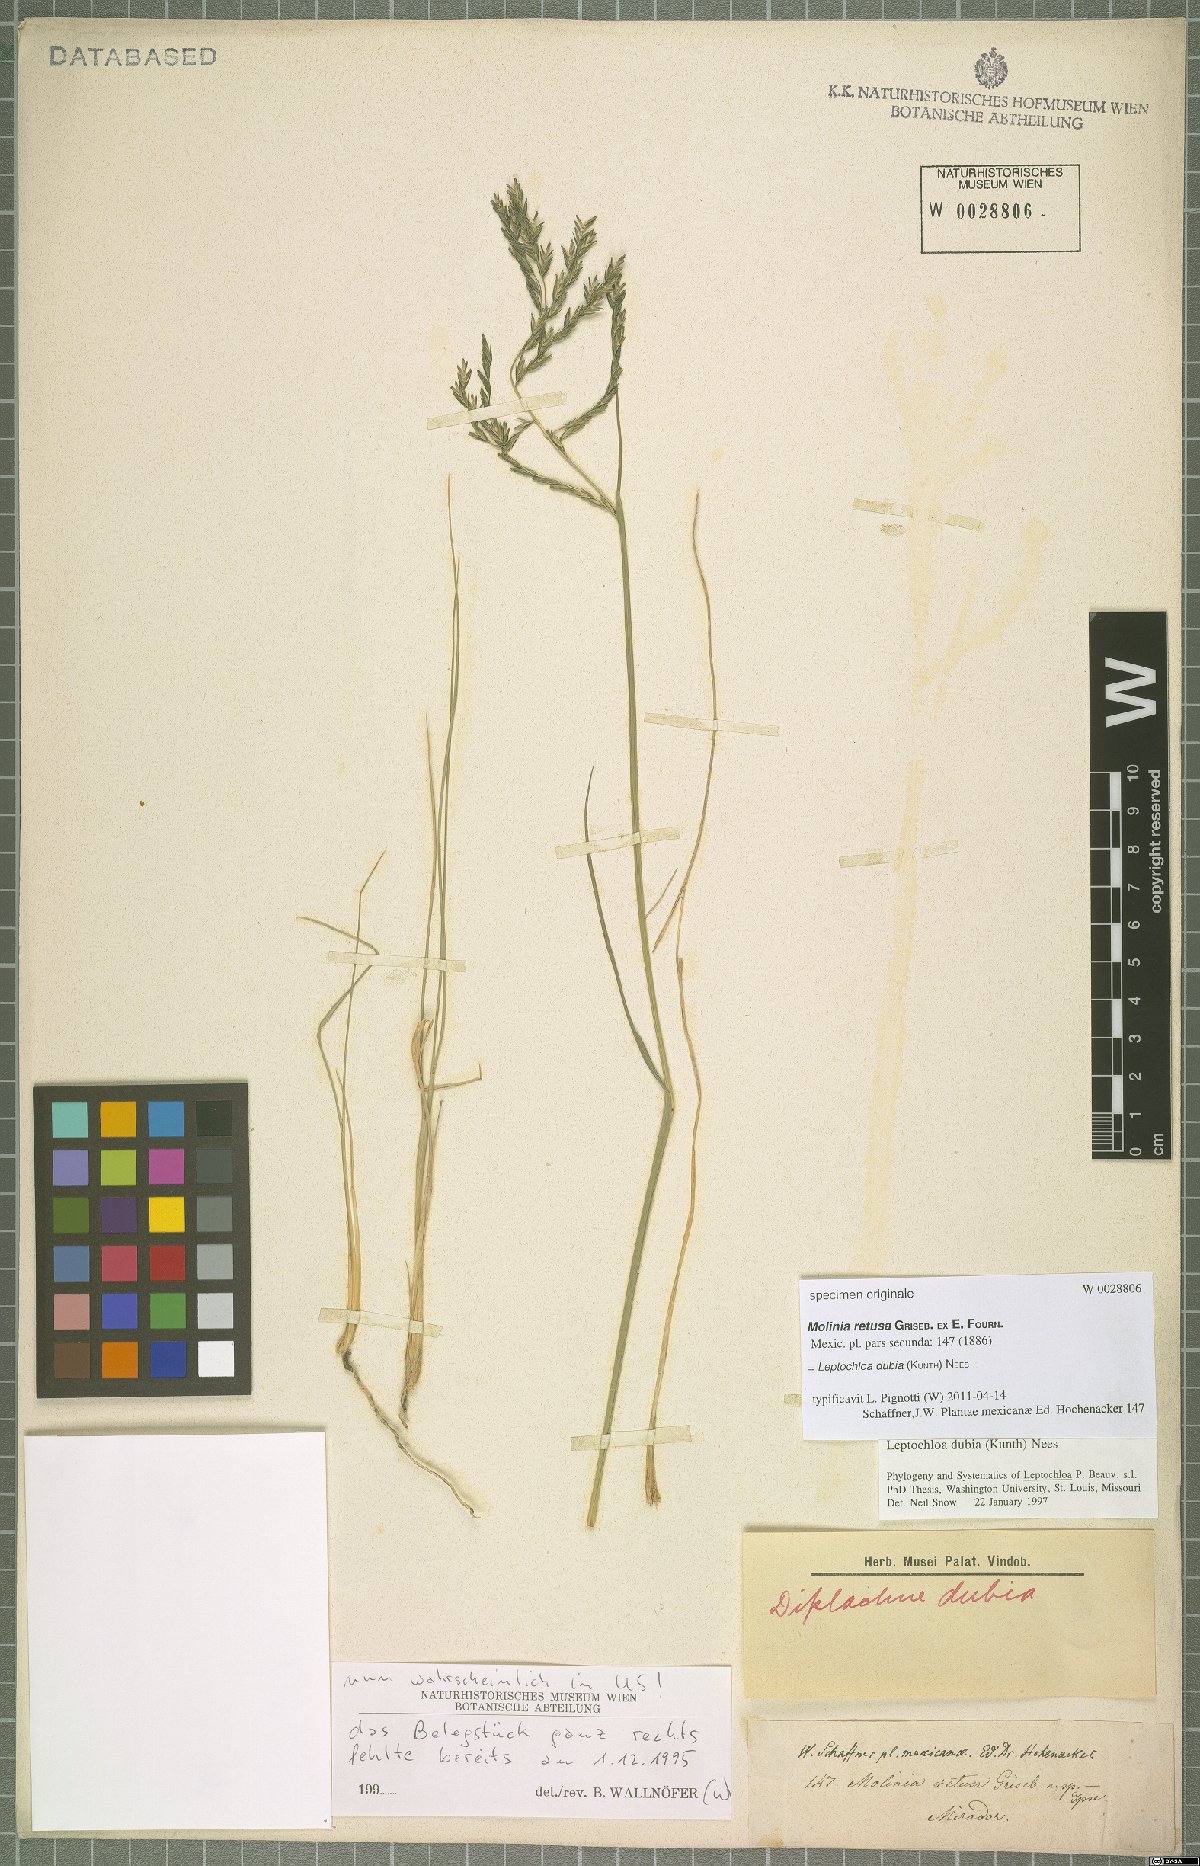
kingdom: Plantae
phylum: Tracheophyta
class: Liliopsida
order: Poales
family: Poaceae
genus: Disakisperma
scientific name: Disakisperma dubium
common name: Green sprangletop
